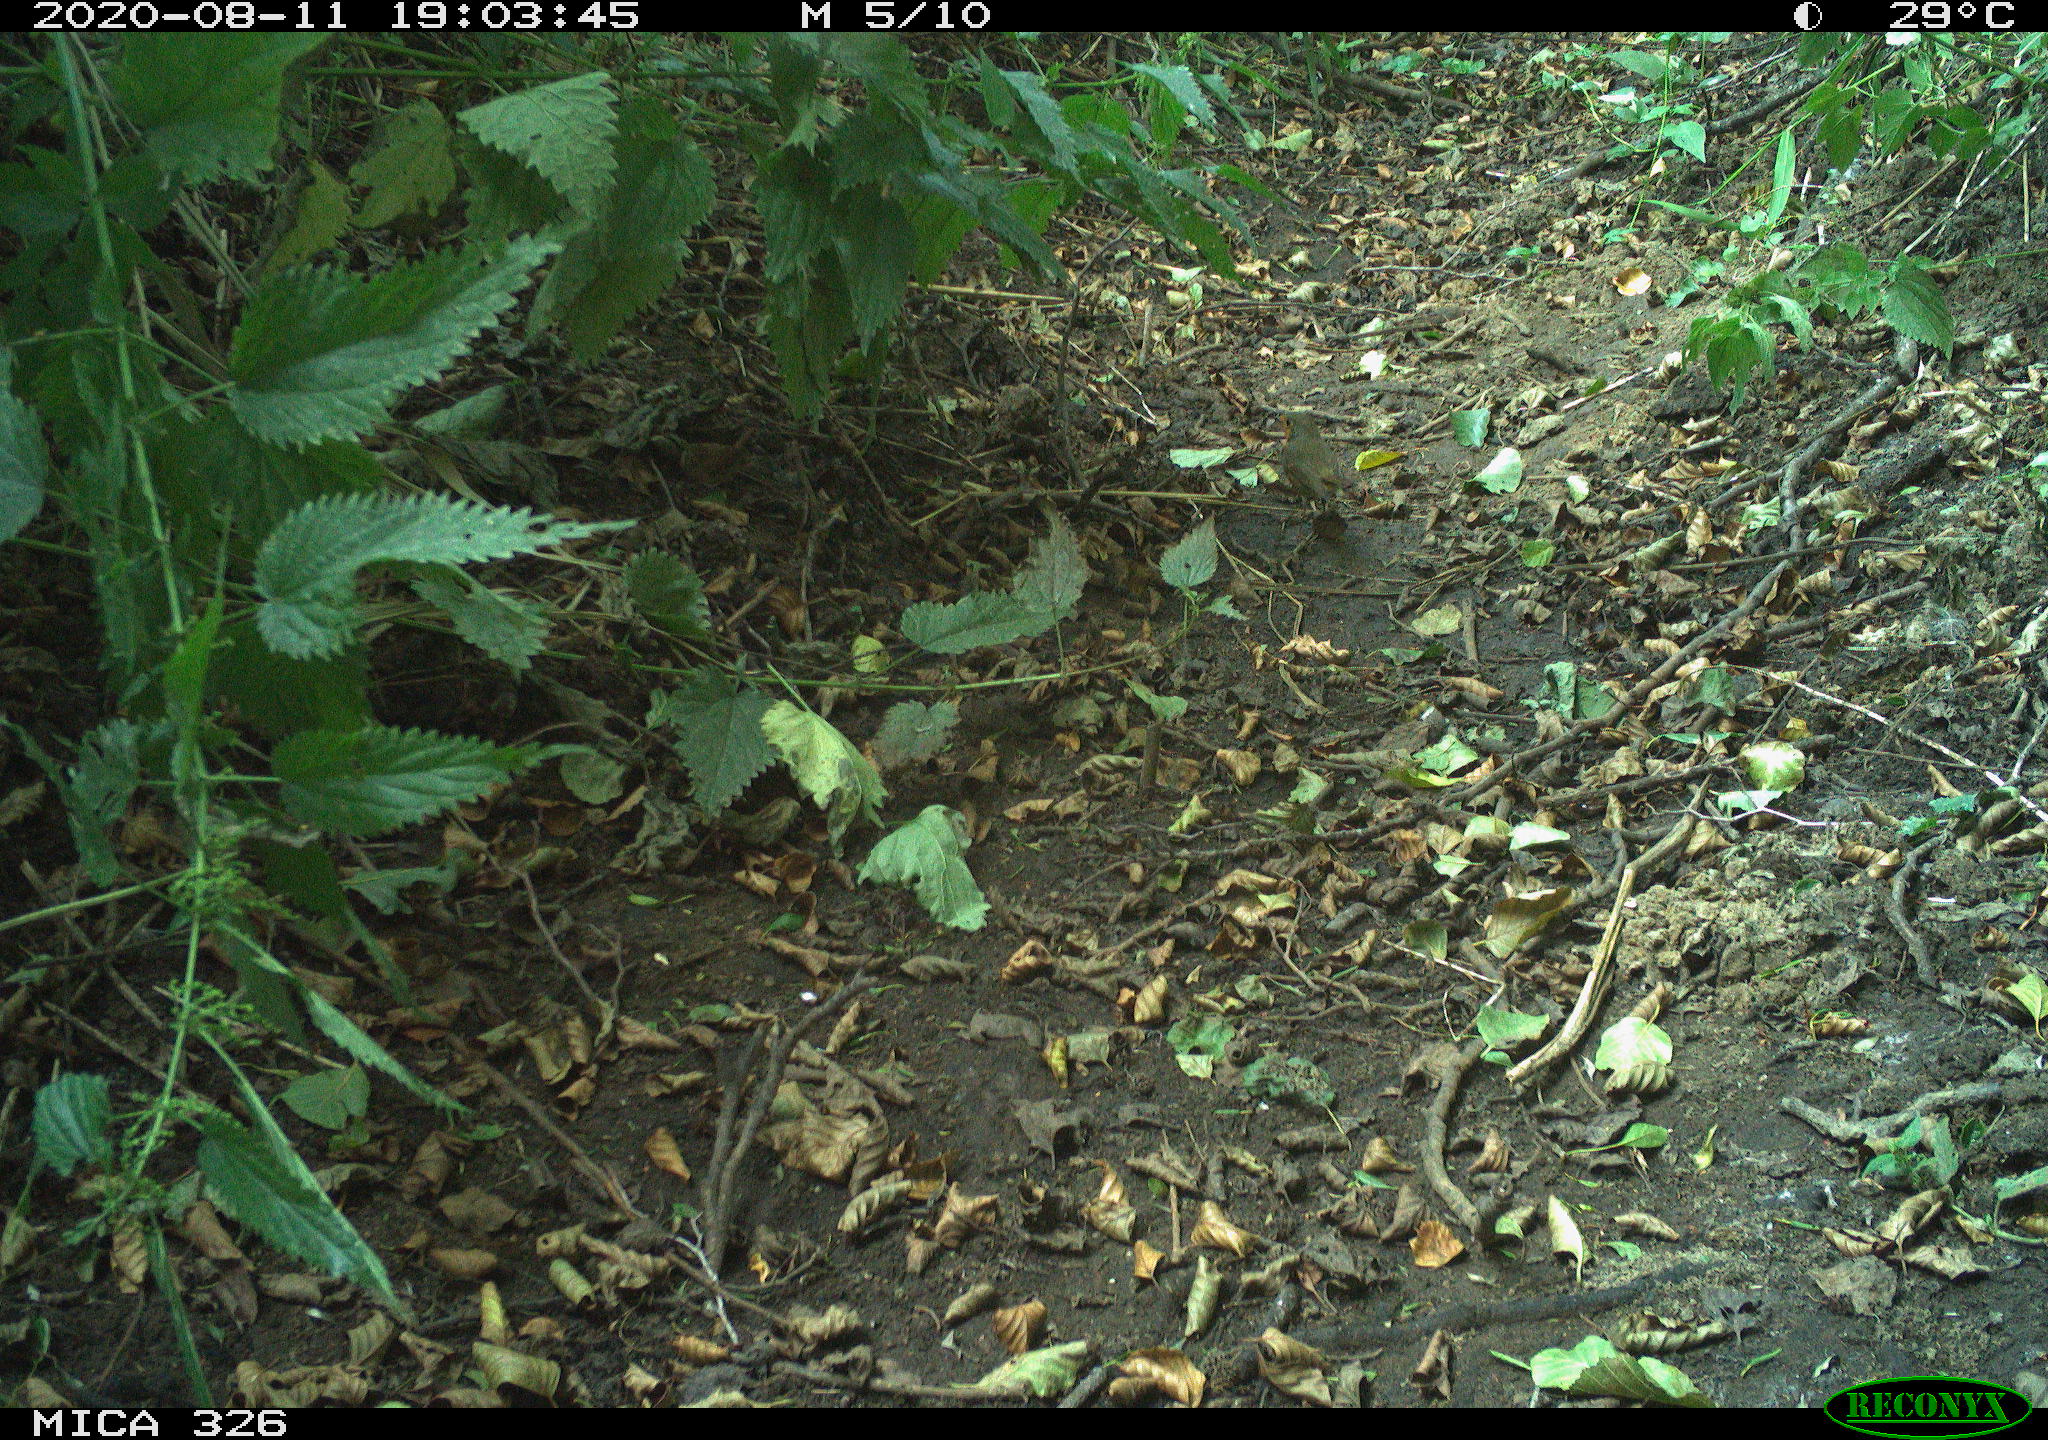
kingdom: Animalia
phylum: Chordata
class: Aves
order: Passeriformes
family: Muscicapidae
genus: Erithacus
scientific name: Erithacus rubecula
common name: European robin
